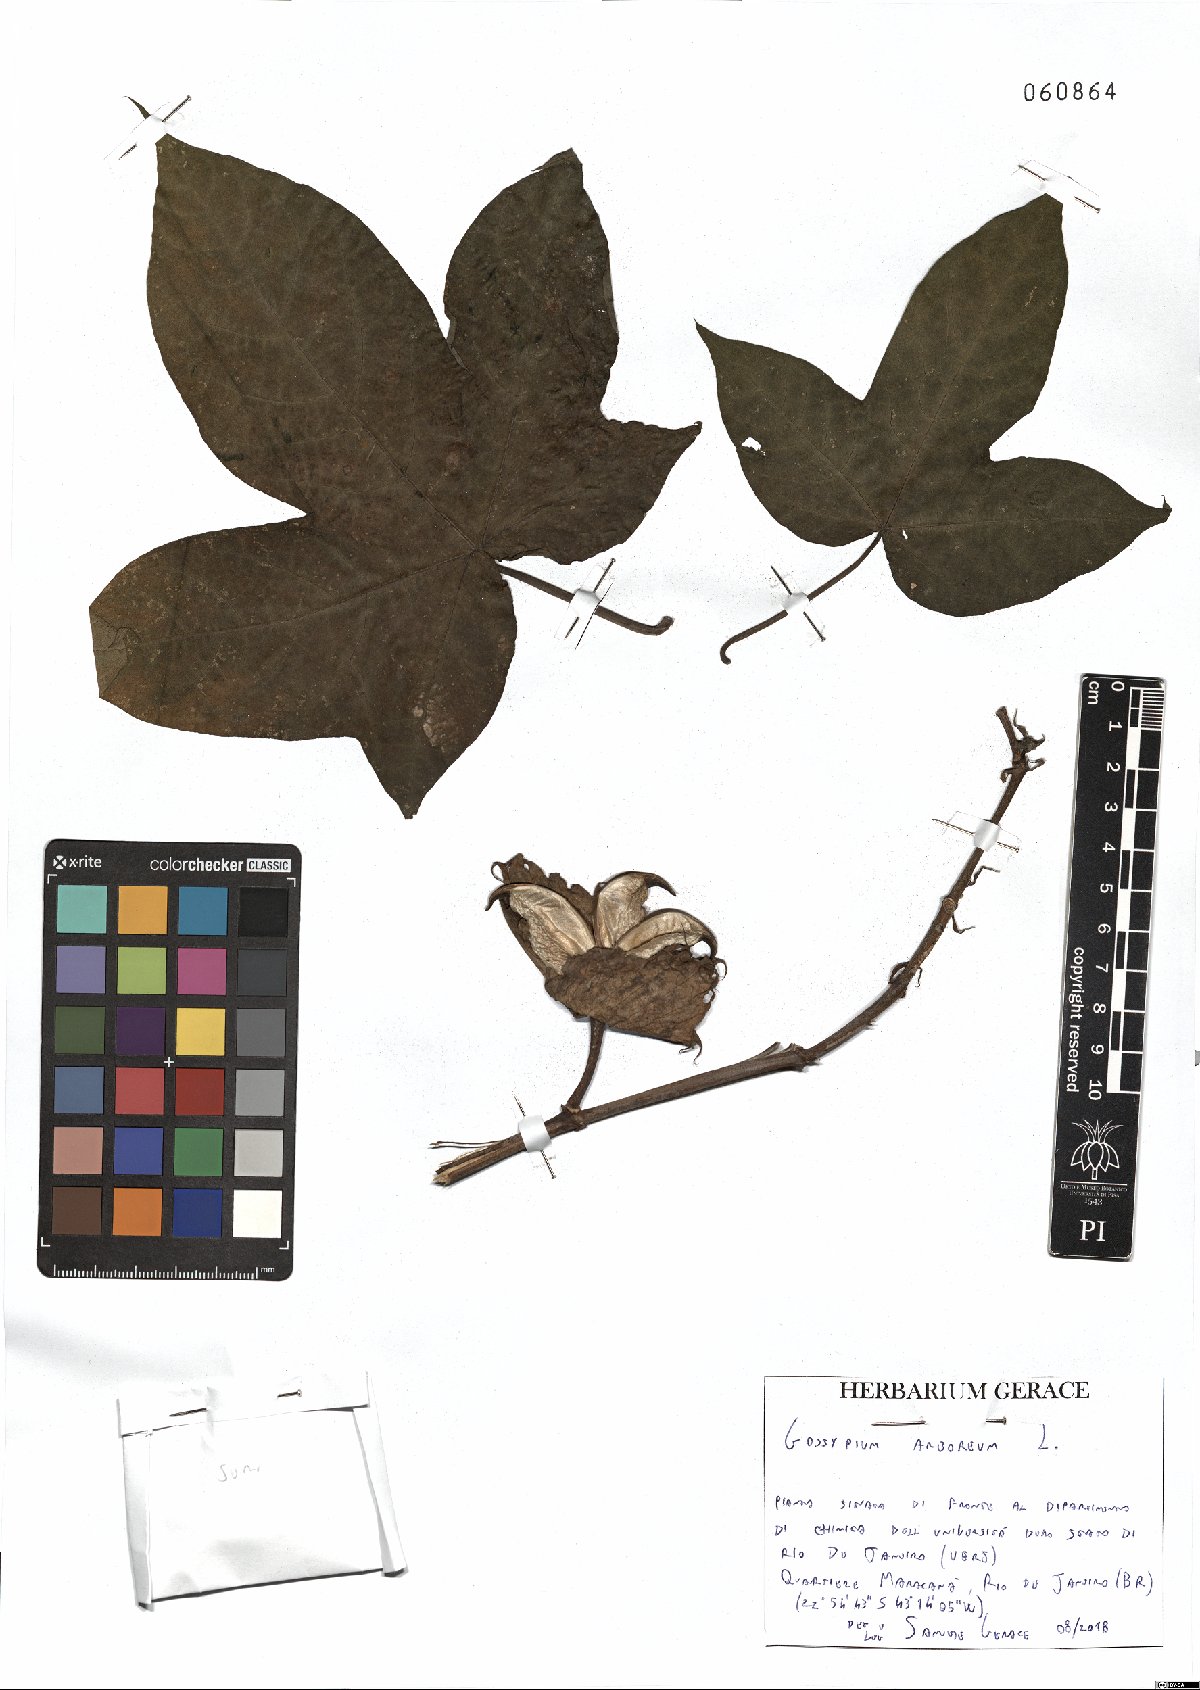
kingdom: Plantae
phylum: Tracheophyta
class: Magnoliopsida
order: Malvales
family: Malvaceae
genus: Gossypium
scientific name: Gossypium arboreum
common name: Tree cotton
